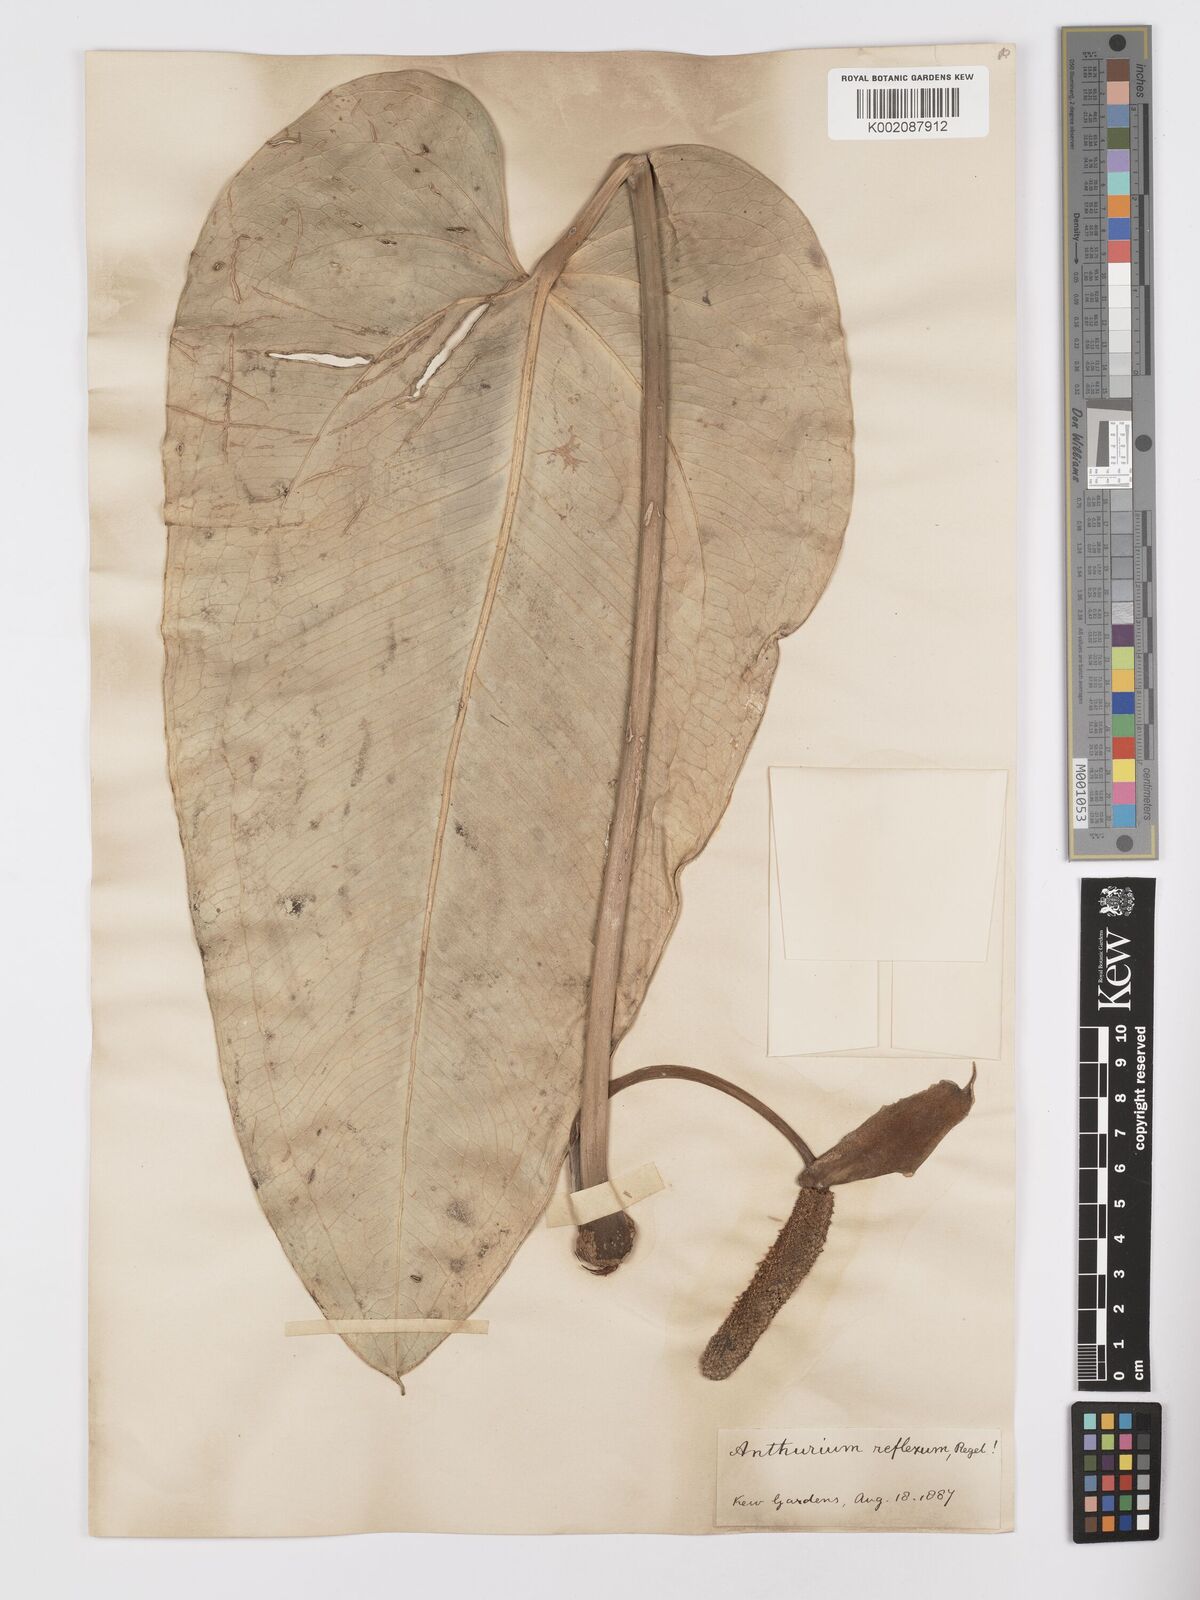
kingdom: Plantae
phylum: Tracheophyta
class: Liliopsida
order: Alismatales
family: Araceae
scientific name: Araceae
